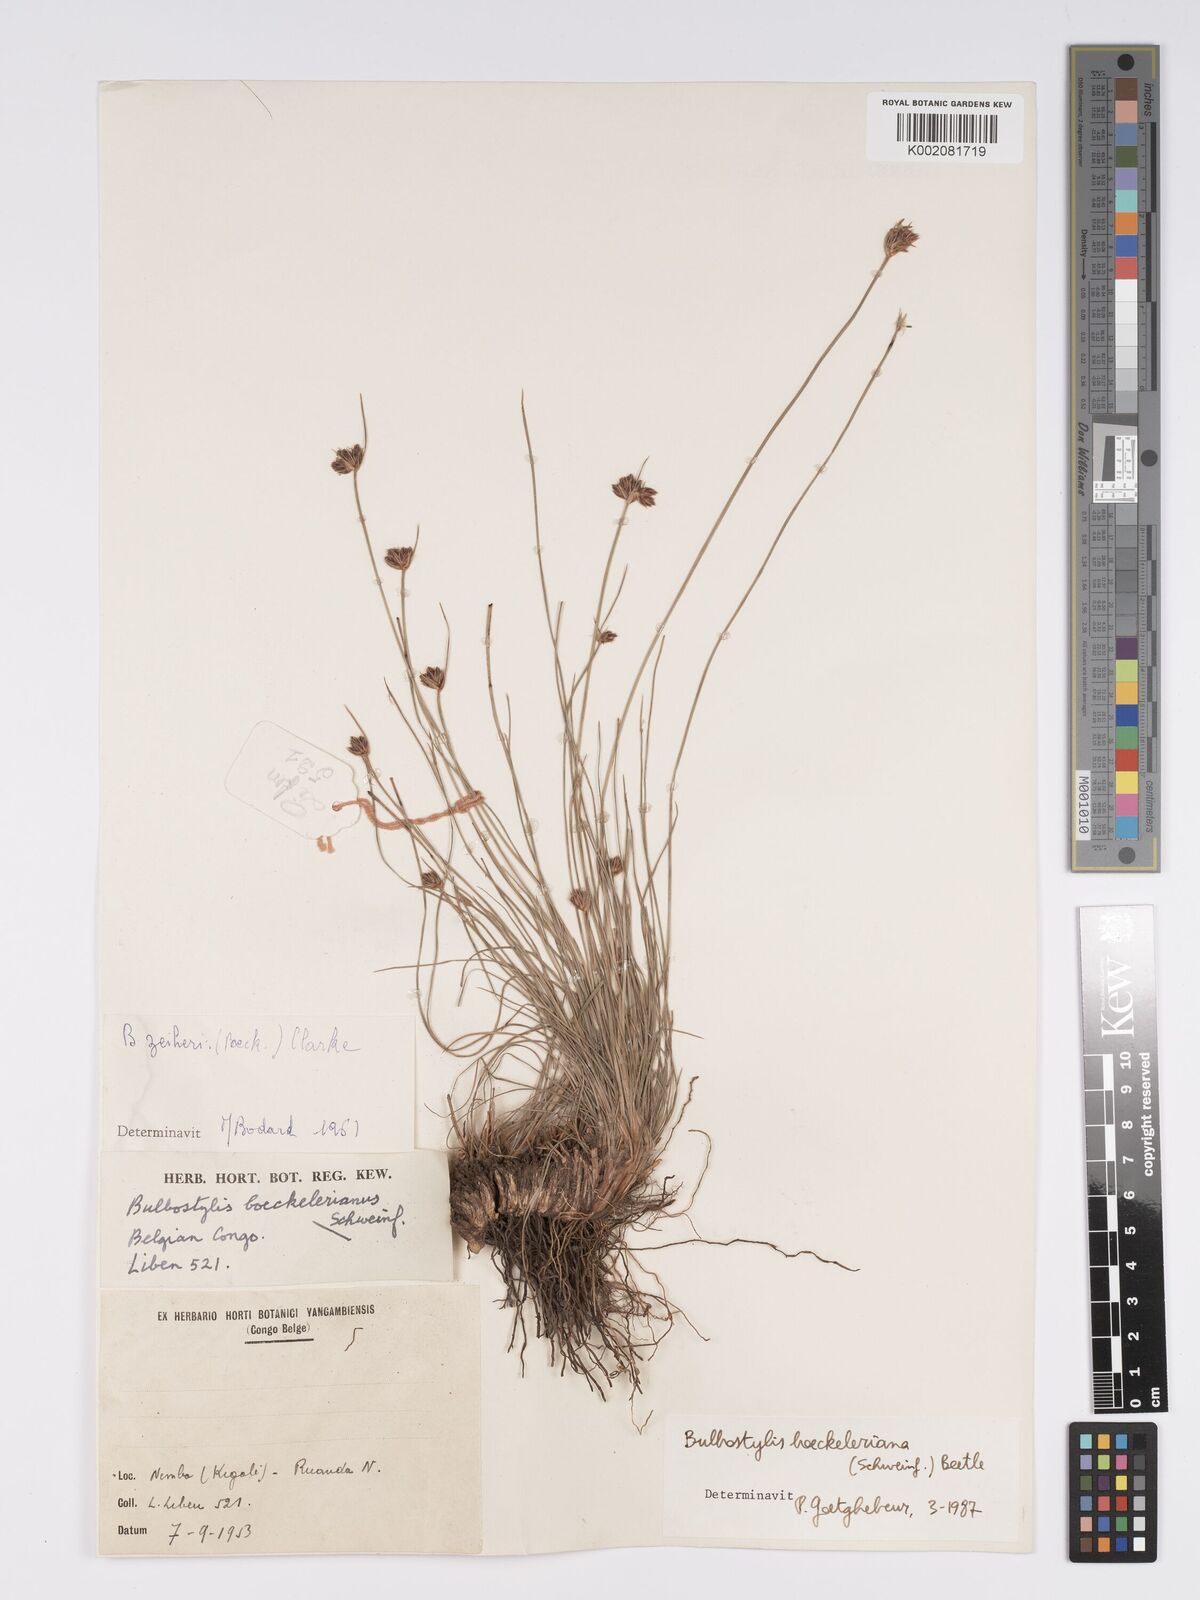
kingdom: Plantae
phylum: Tracheophyta
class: Liliopsida
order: Poales
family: Cyperaceae
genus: Bulbostylis
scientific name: Bulbostylis boeckeleriana
